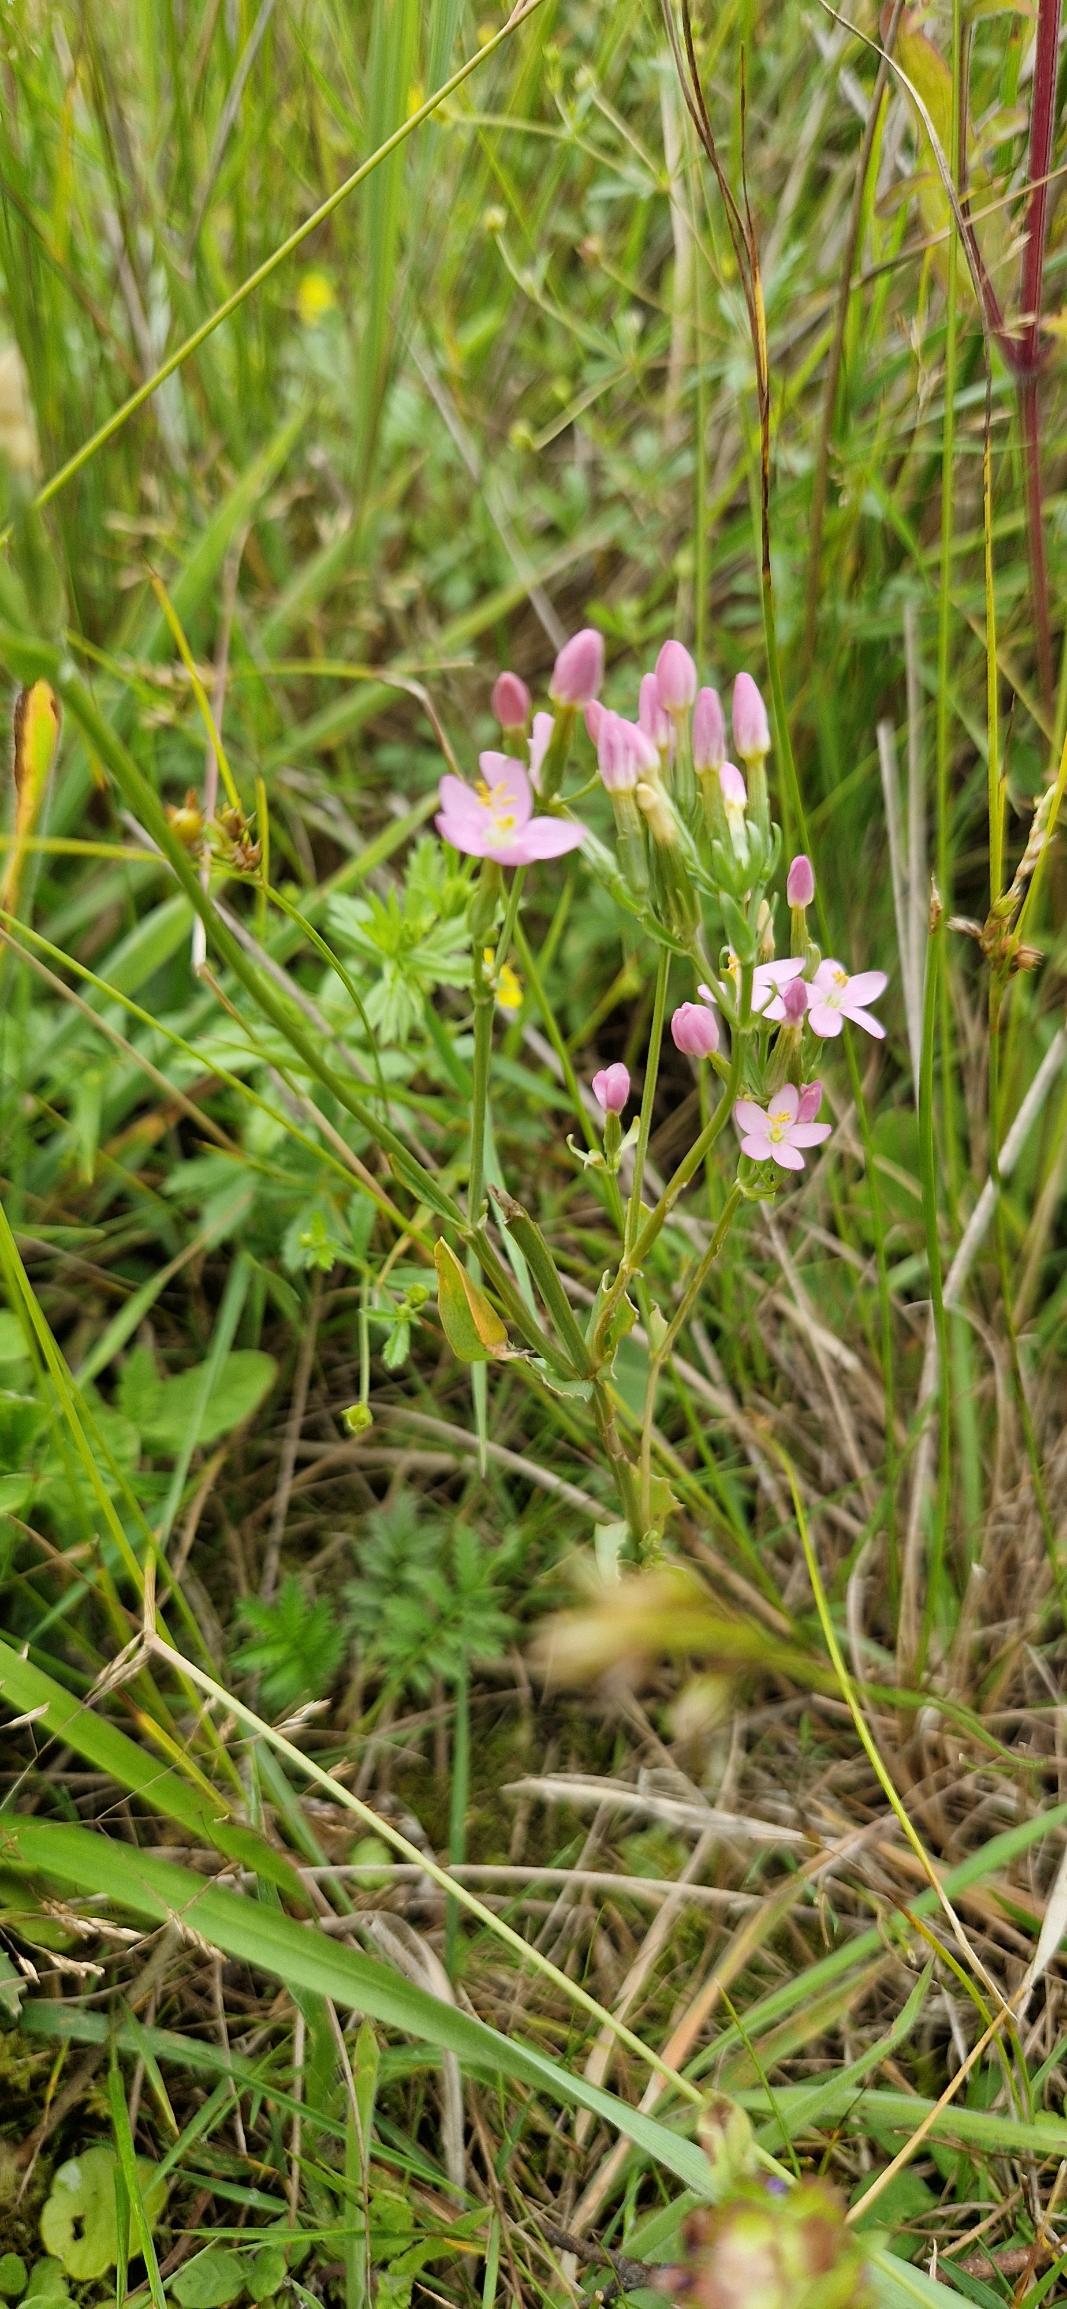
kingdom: Plantae
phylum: Tracheophyta
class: Magnoliopsida
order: Gentianales
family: Gentianaceae
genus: Centaurium
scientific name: Centaurium erythraea
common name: Mark-tusindgylden
